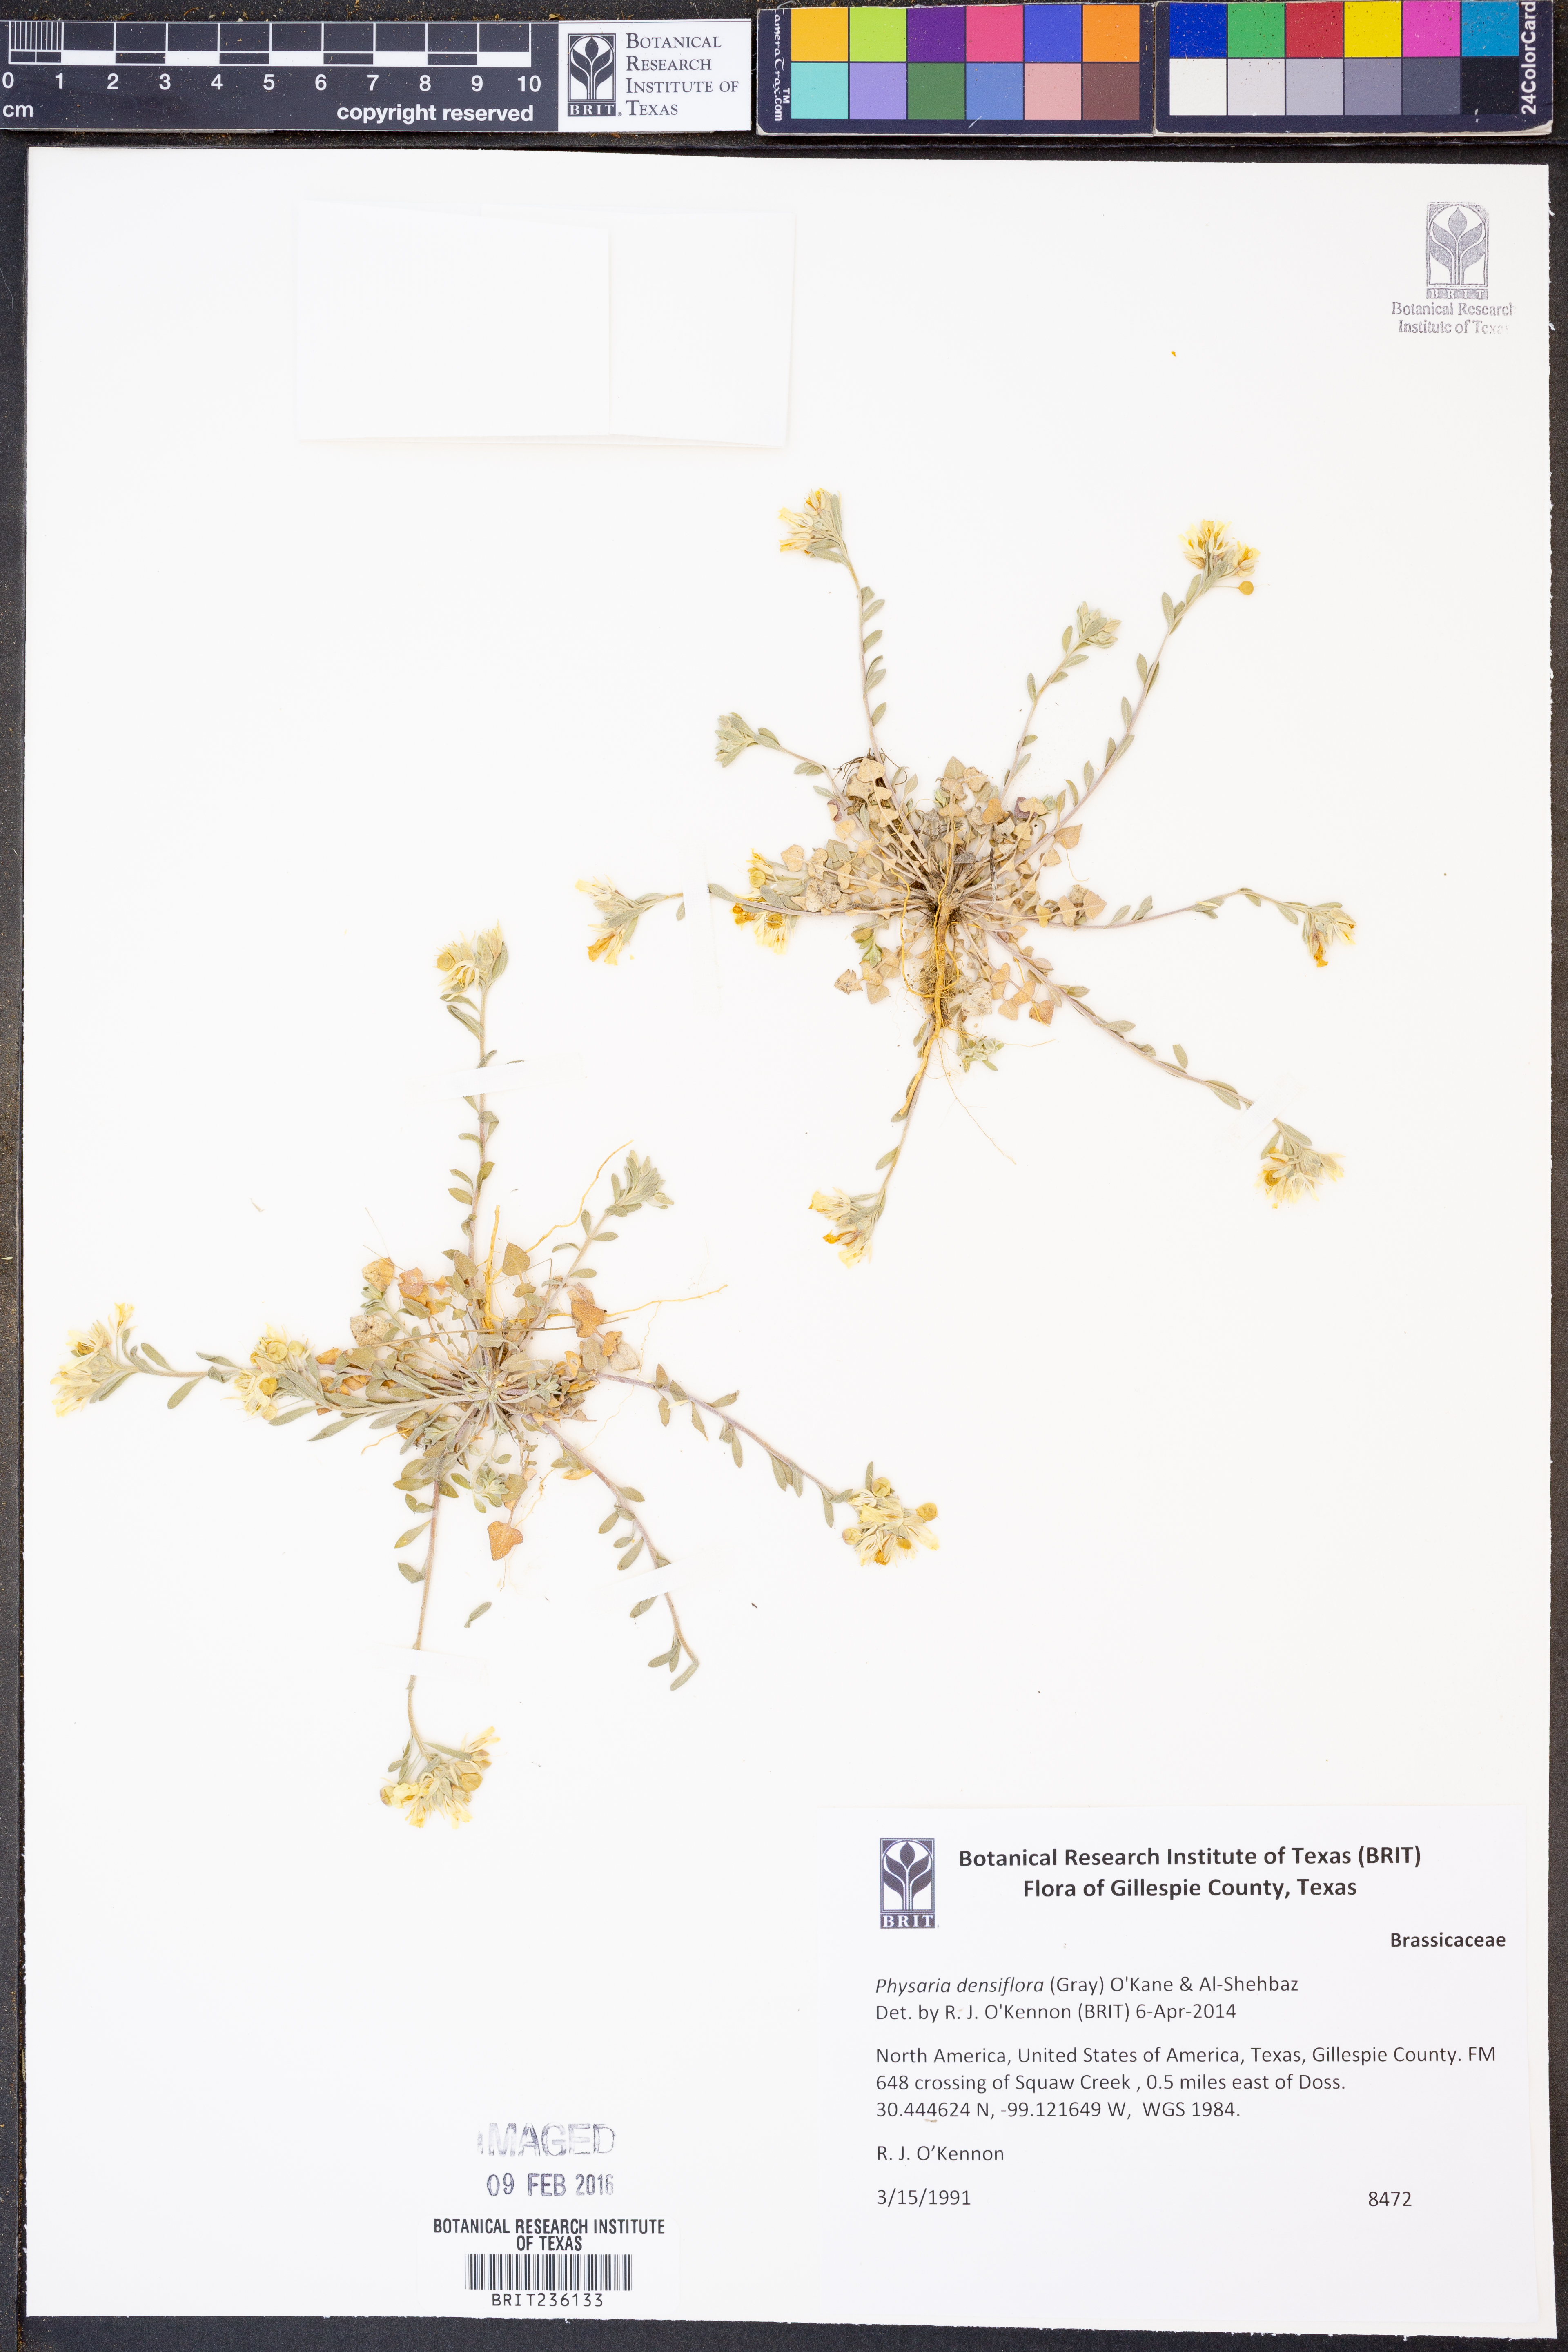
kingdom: Plantae
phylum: Tracheophyta
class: Magnoliopsida
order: Brassicales
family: Brassicaceae
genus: Physaria
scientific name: Physaria densiflora
